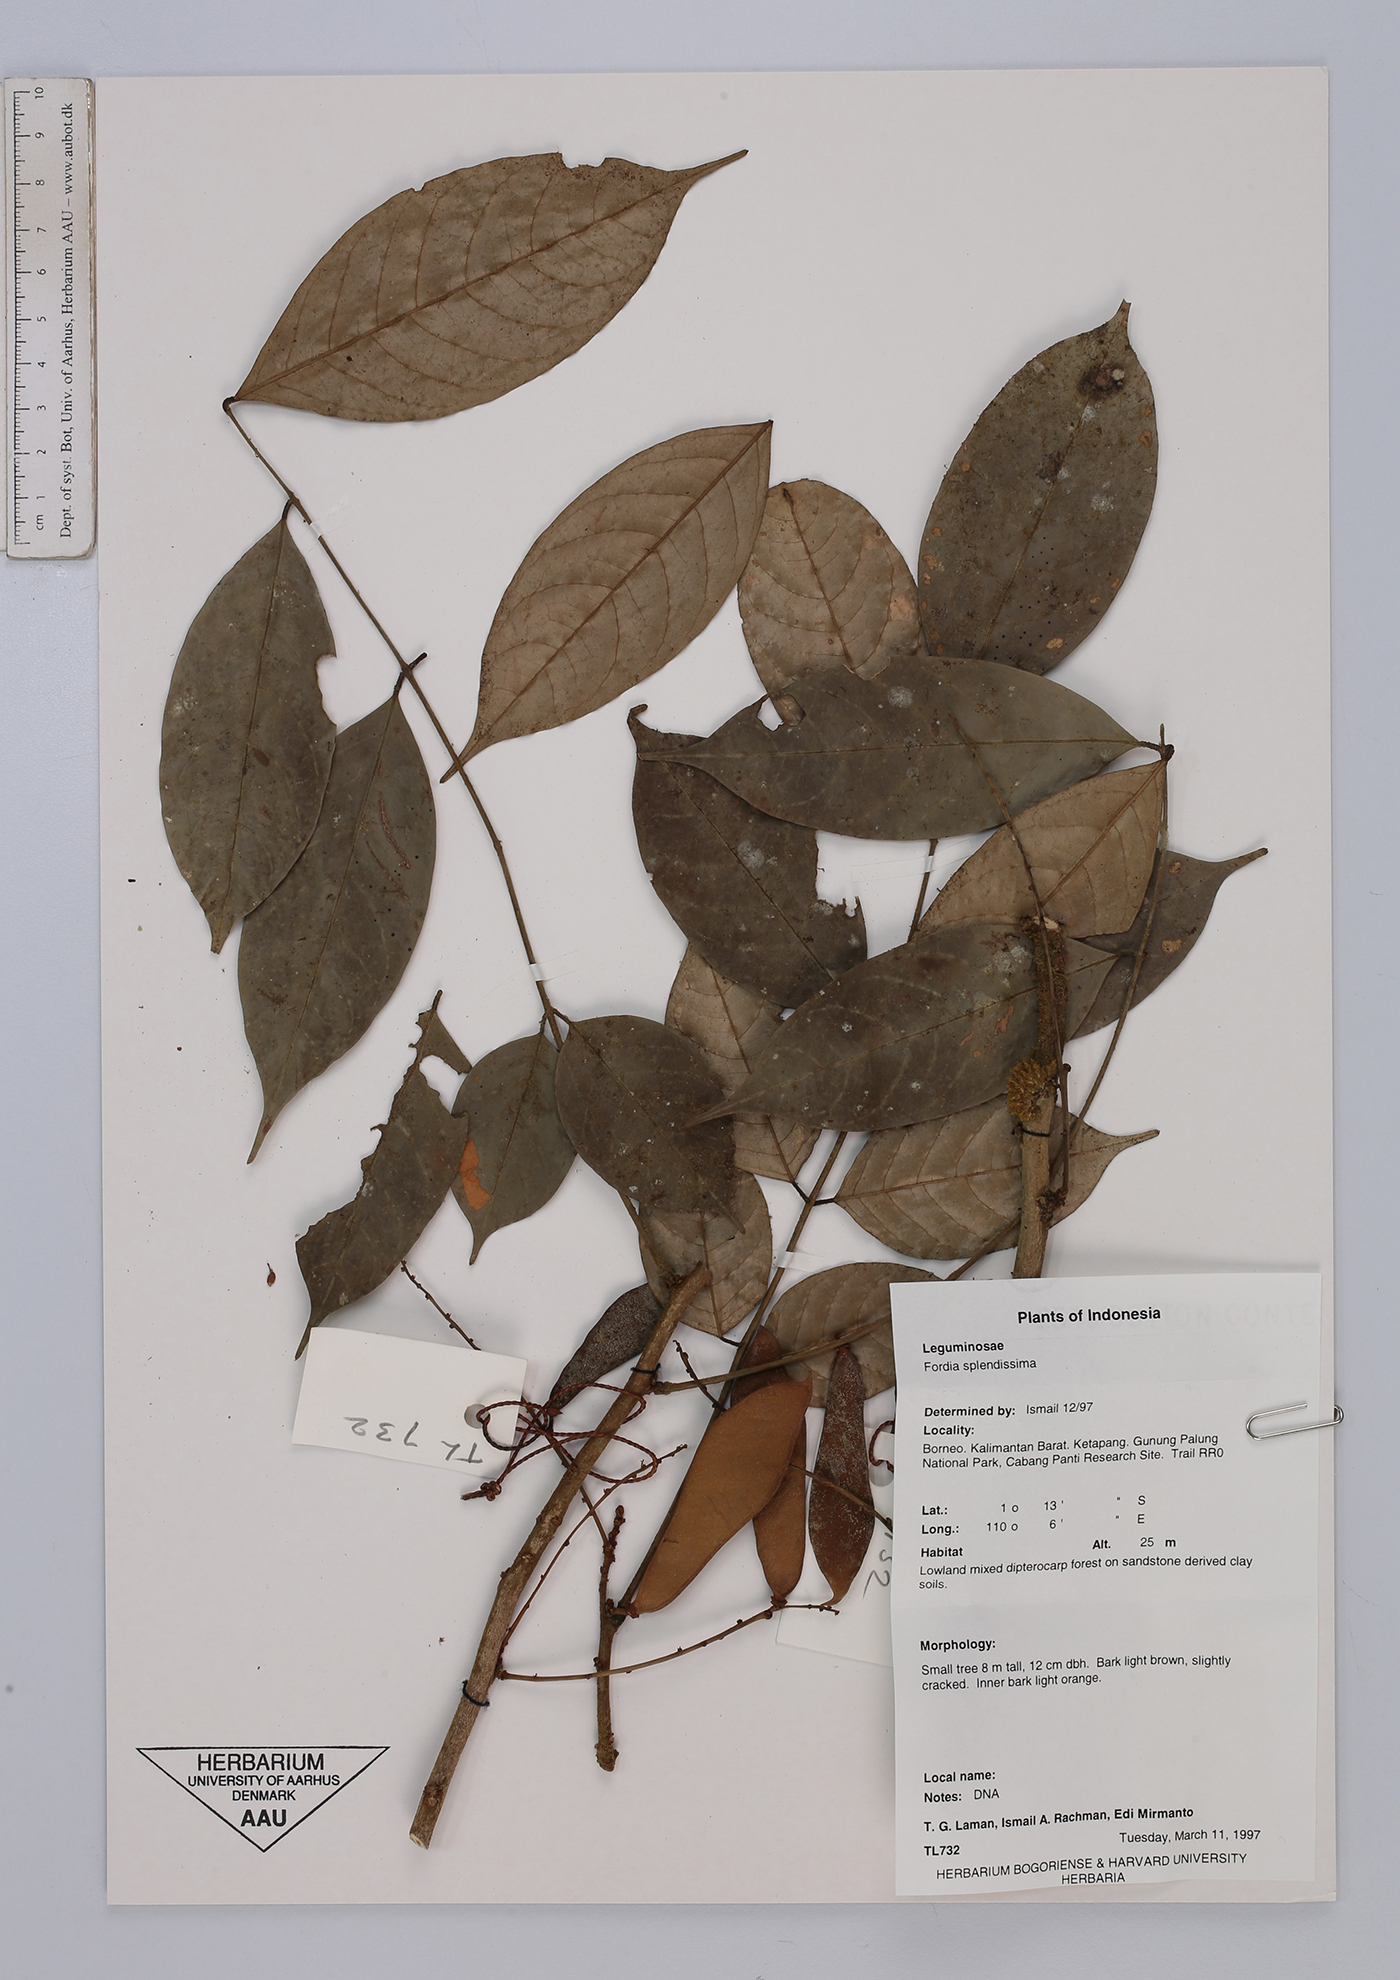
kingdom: Plantae
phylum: Tracheophyta
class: Magnoliopsida
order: Fabales
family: Fabaceae
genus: Fordia
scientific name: Fordia splendidissima
